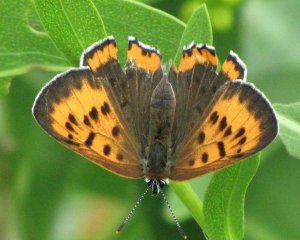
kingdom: Animalia
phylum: Arthropoda
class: Insecta
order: Lepidoptera
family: Sesiidae
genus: Sesia
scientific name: Sesia Lycaena hyllus
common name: Bronze Copper
